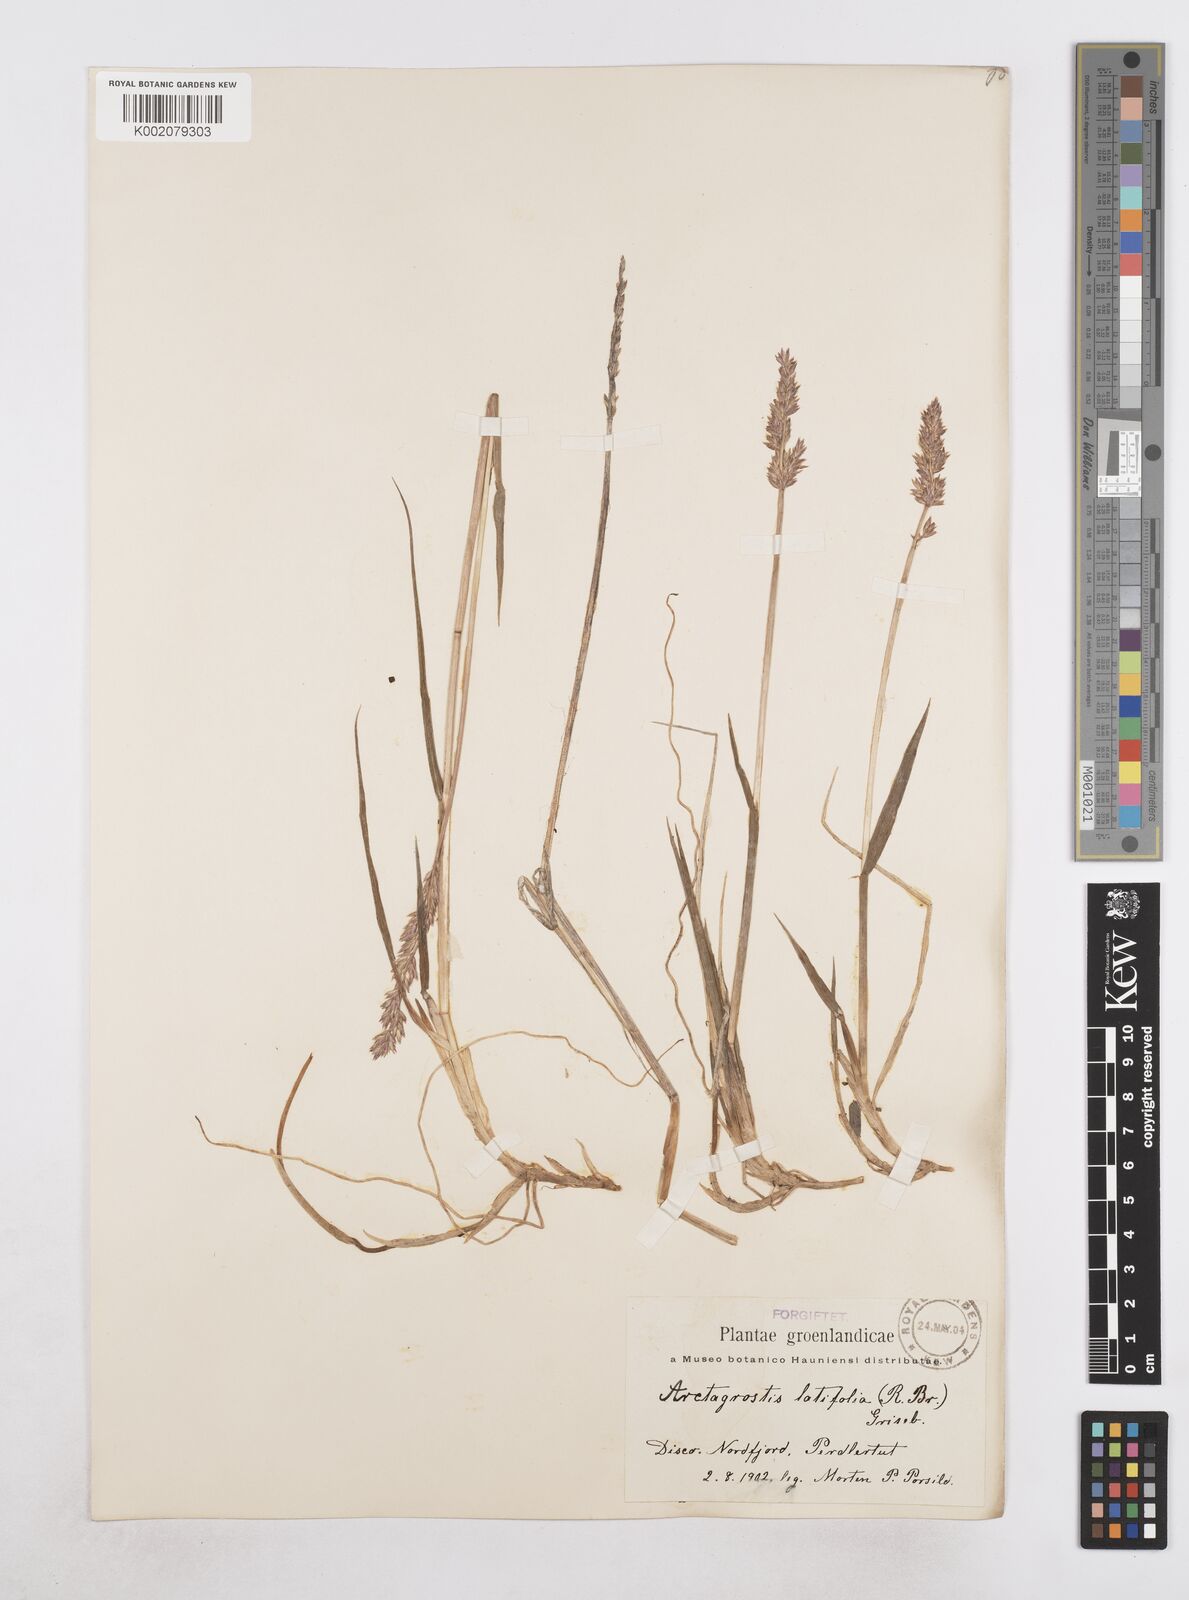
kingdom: Plantae
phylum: Tracheophyta
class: Liliopsida
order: Poales
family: Poaceae
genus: Arctagrostis
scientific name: Arctagrostis latifolia
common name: Arctic grass
